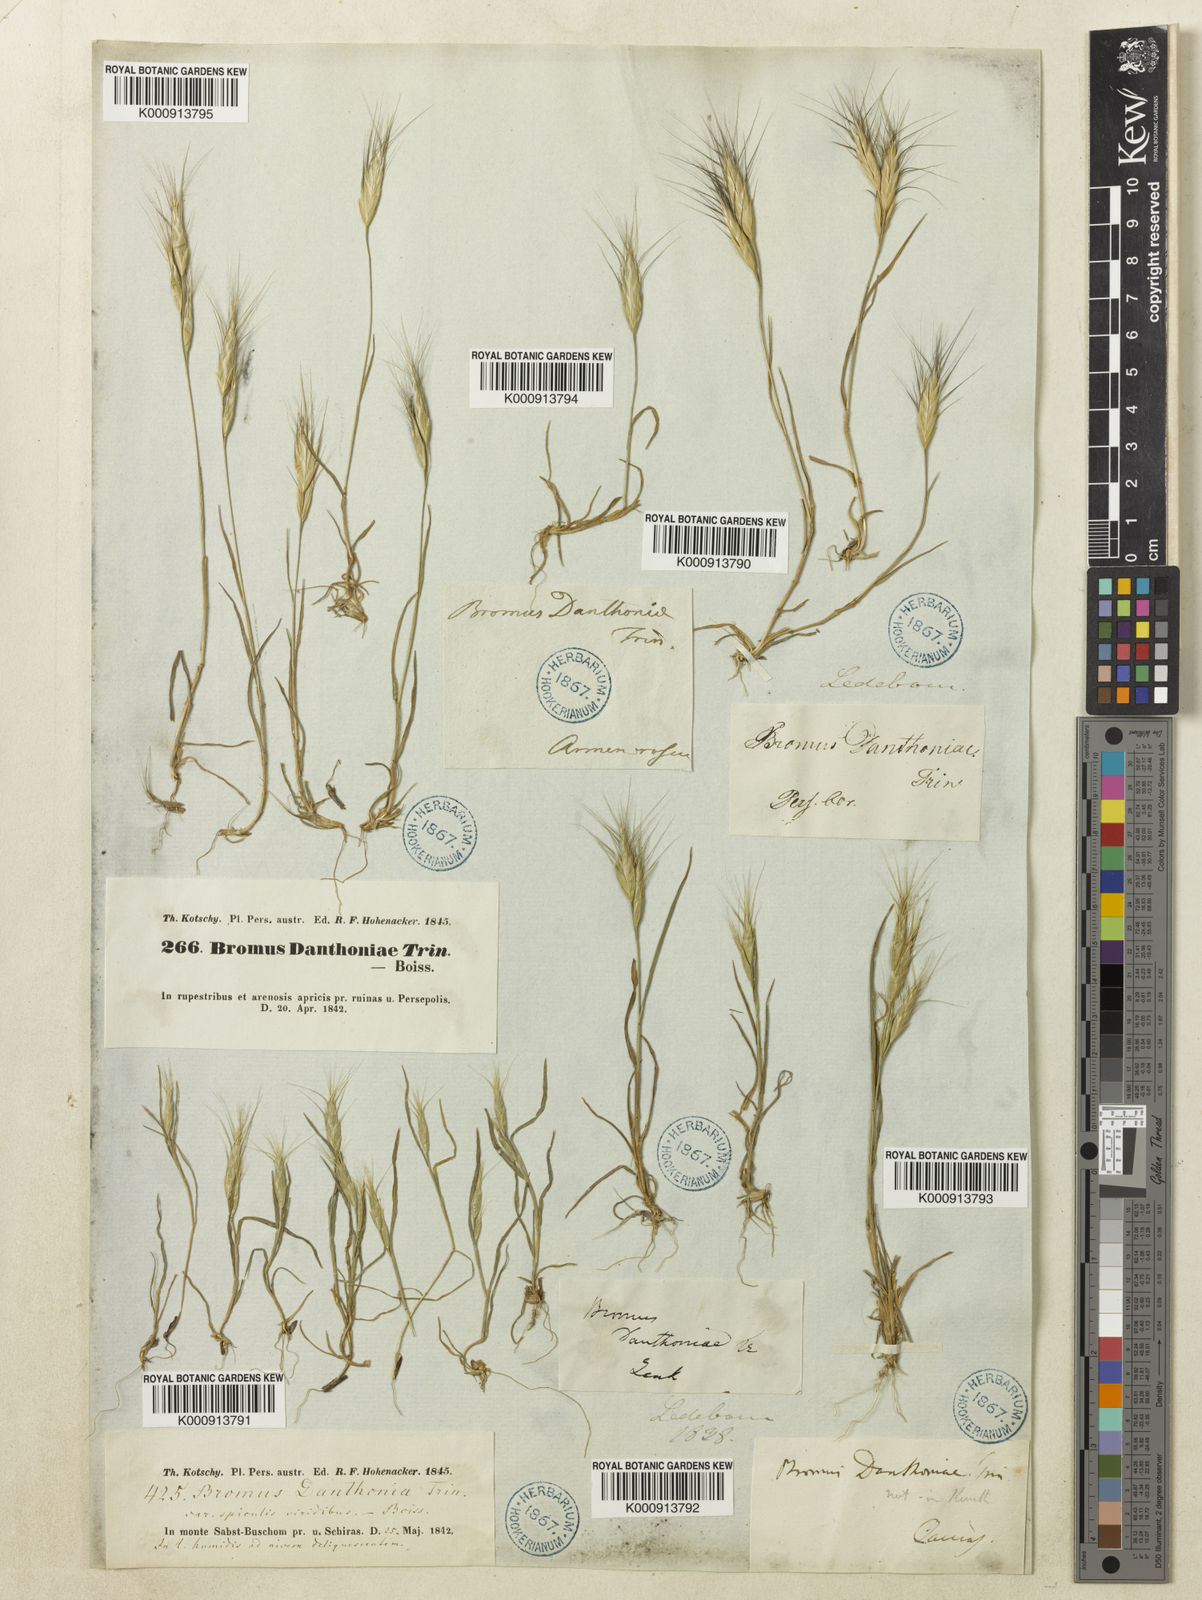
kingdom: Plantae
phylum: Tracheophyta
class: Liliopsida
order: Poales
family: Poaceae
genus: Bromus
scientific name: Bromus danthoniae
